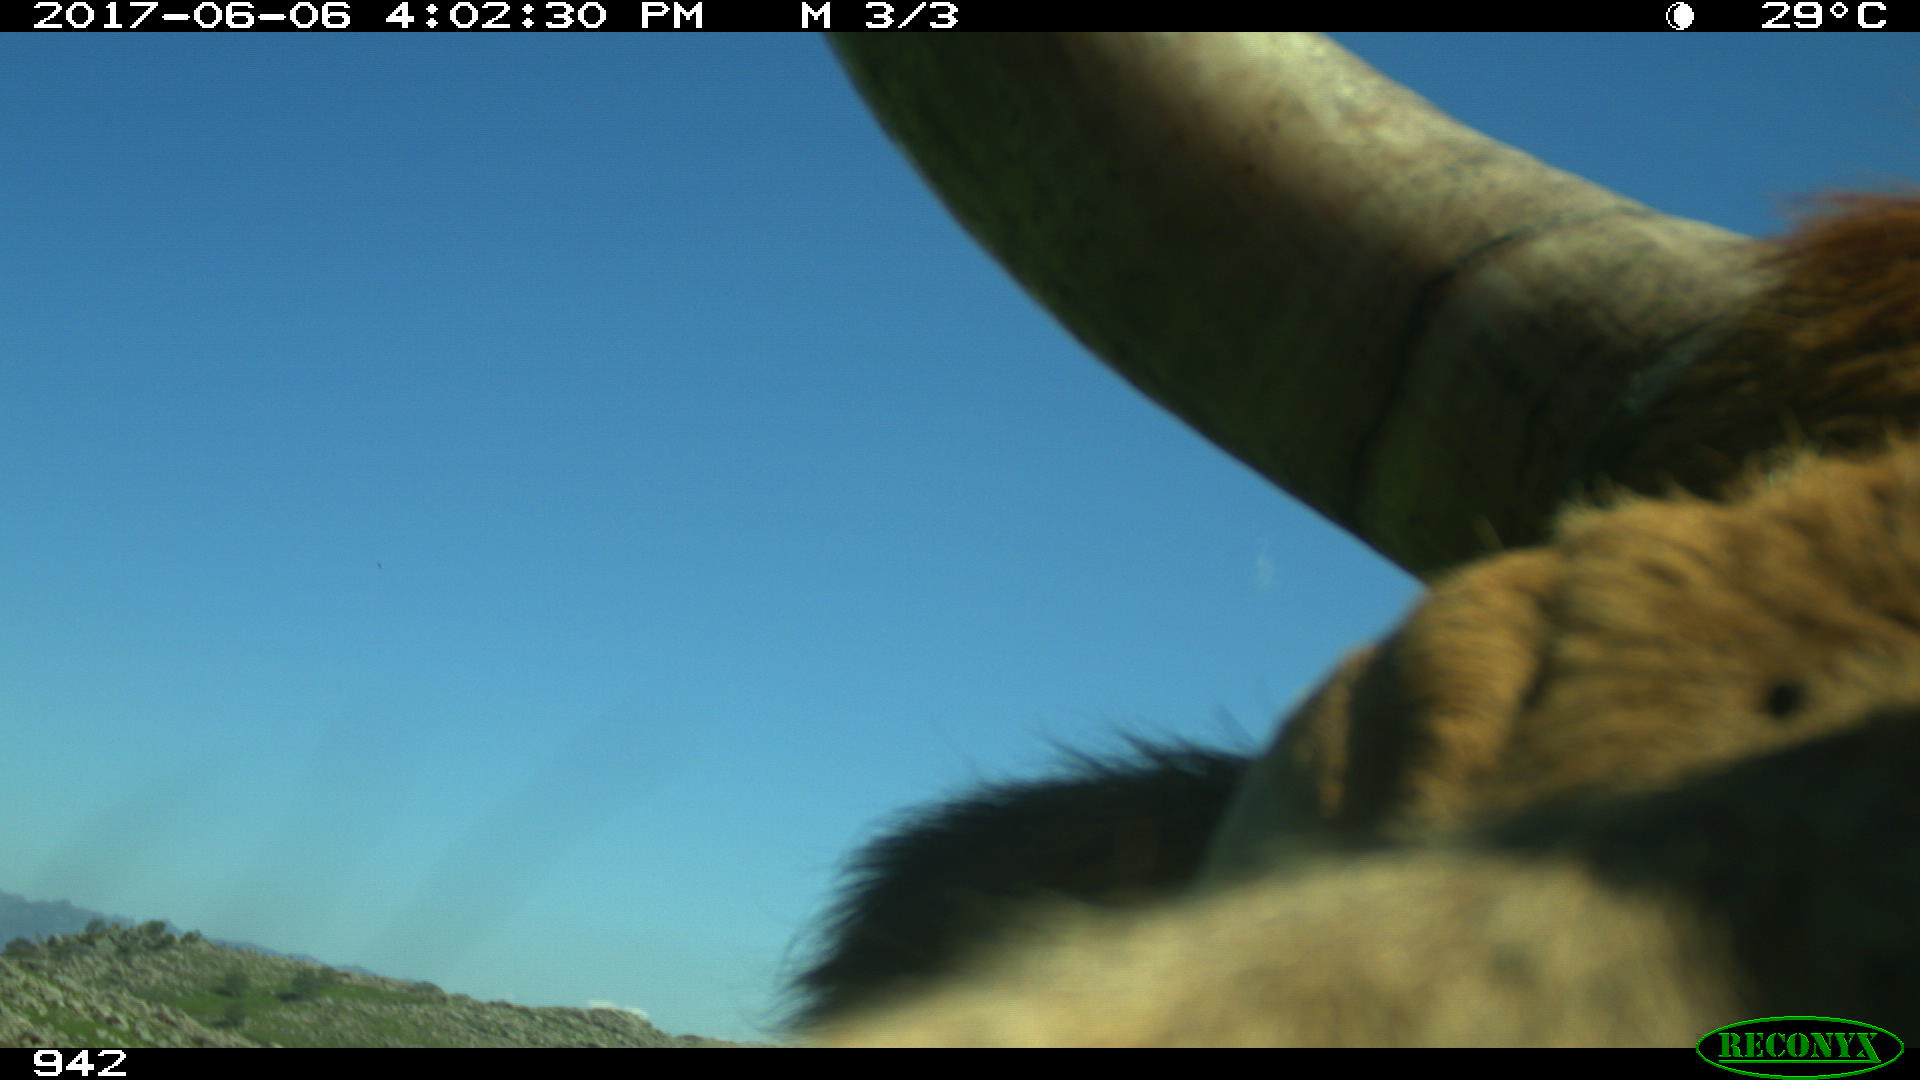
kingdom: Animalia
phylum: Chordata
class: Mammalia
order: Artiodactyla
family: Bovidae
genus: Bos
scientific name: Bos taurus
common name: Domesticated cattle
